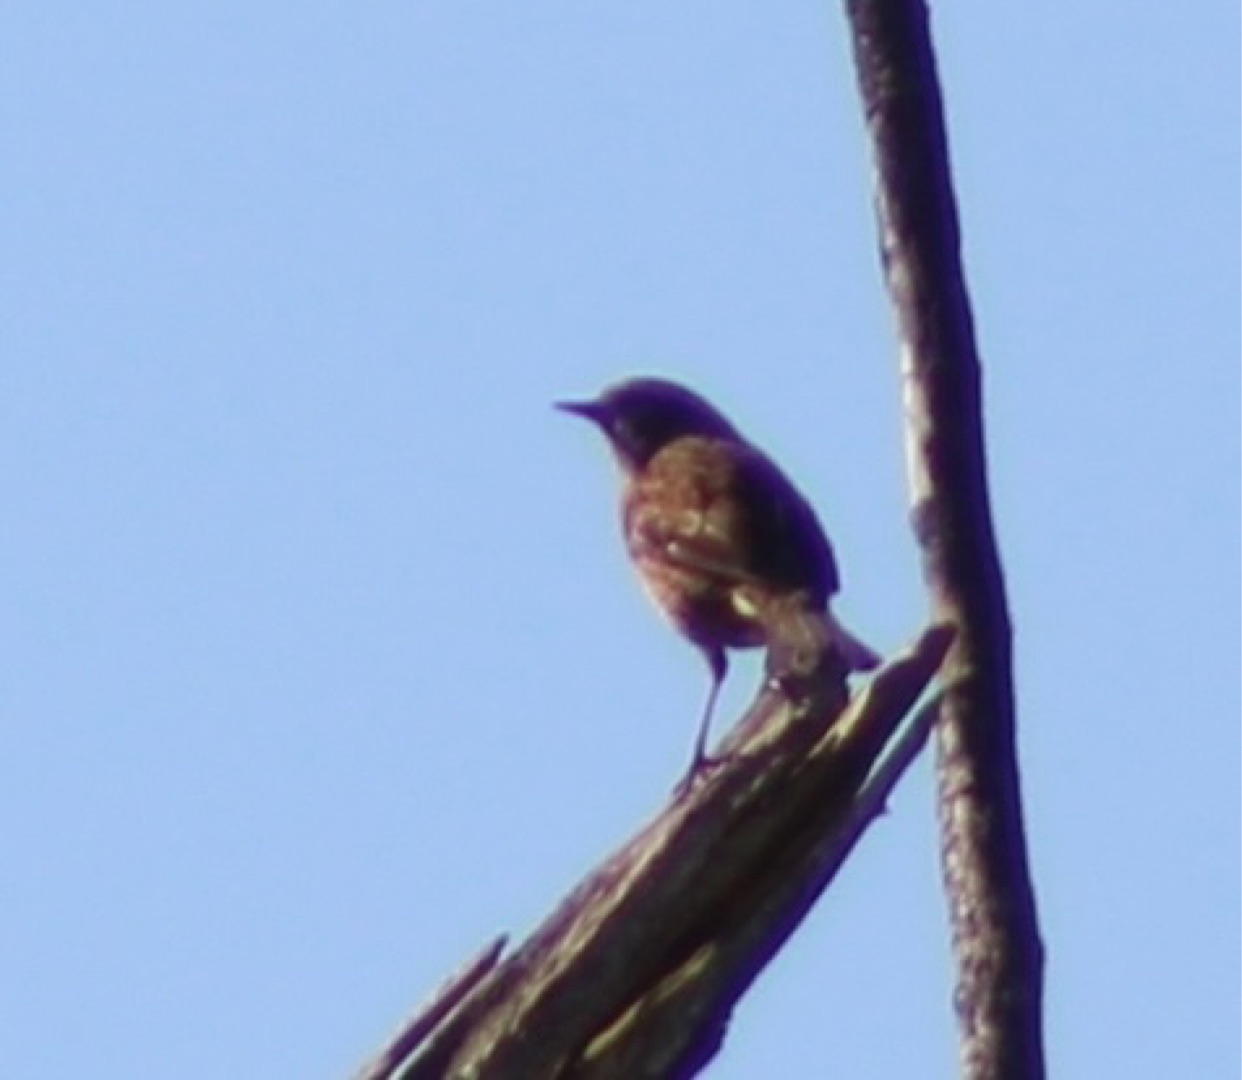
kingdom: Animalia
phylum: Chordata
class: Aves
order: Passeriformes
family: Prunellidae
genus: Prunella
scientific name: Prunella modularis
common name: Jernspurv
